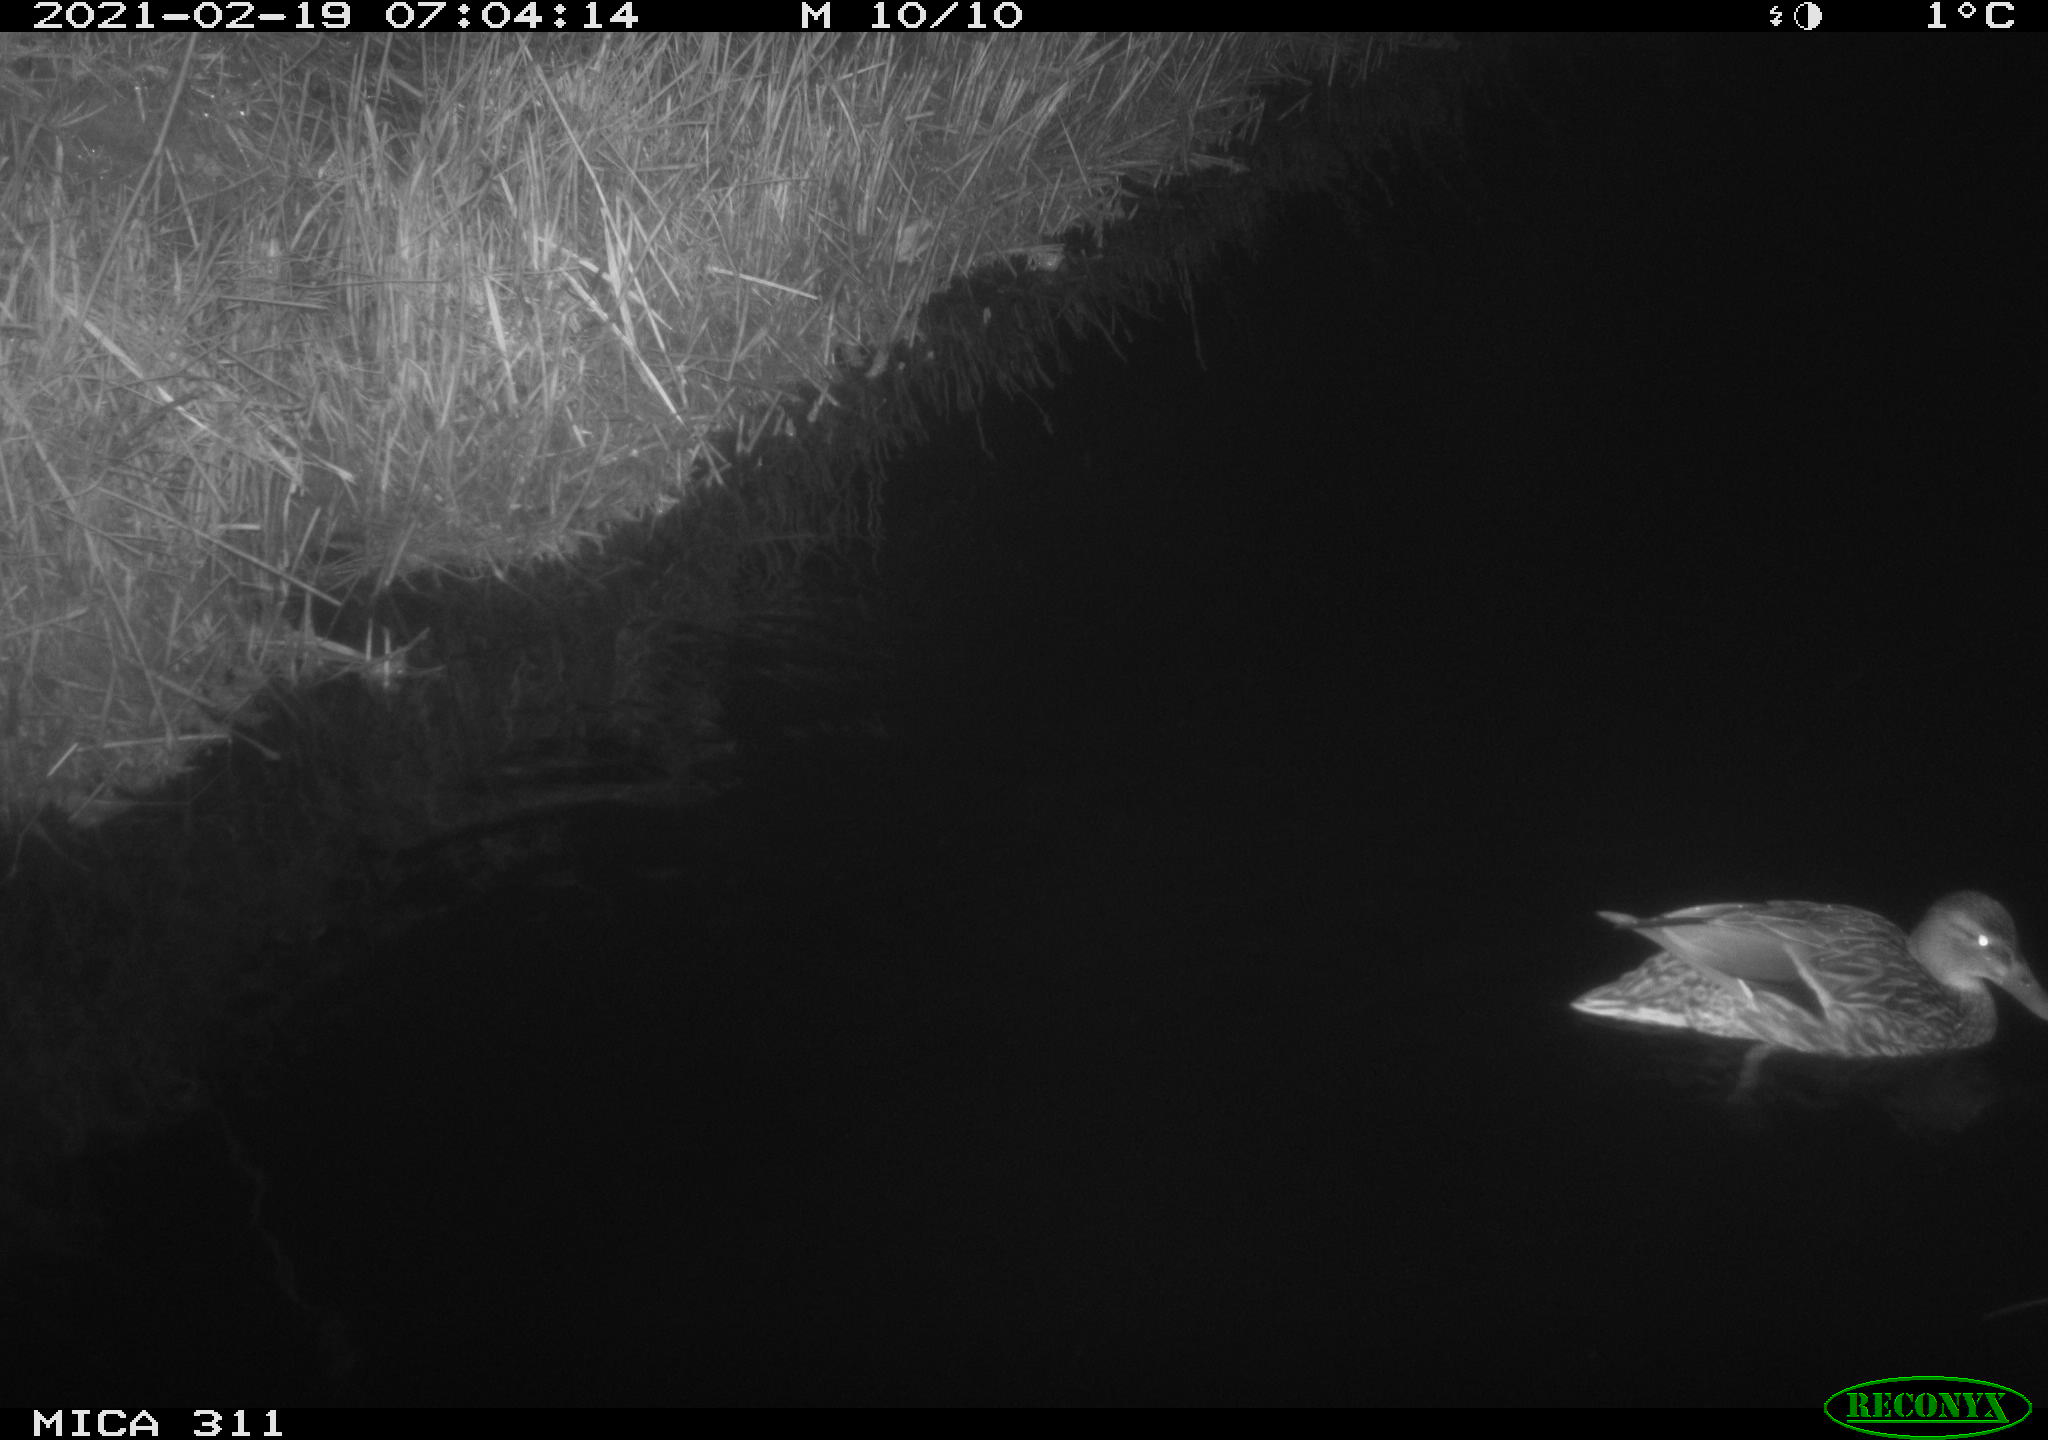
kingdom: Animalia
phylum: Chordata
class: Aves
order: Anseriformes
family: Anatidae
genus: Anas
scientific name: Anas platyrhynchos
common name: Mallard
